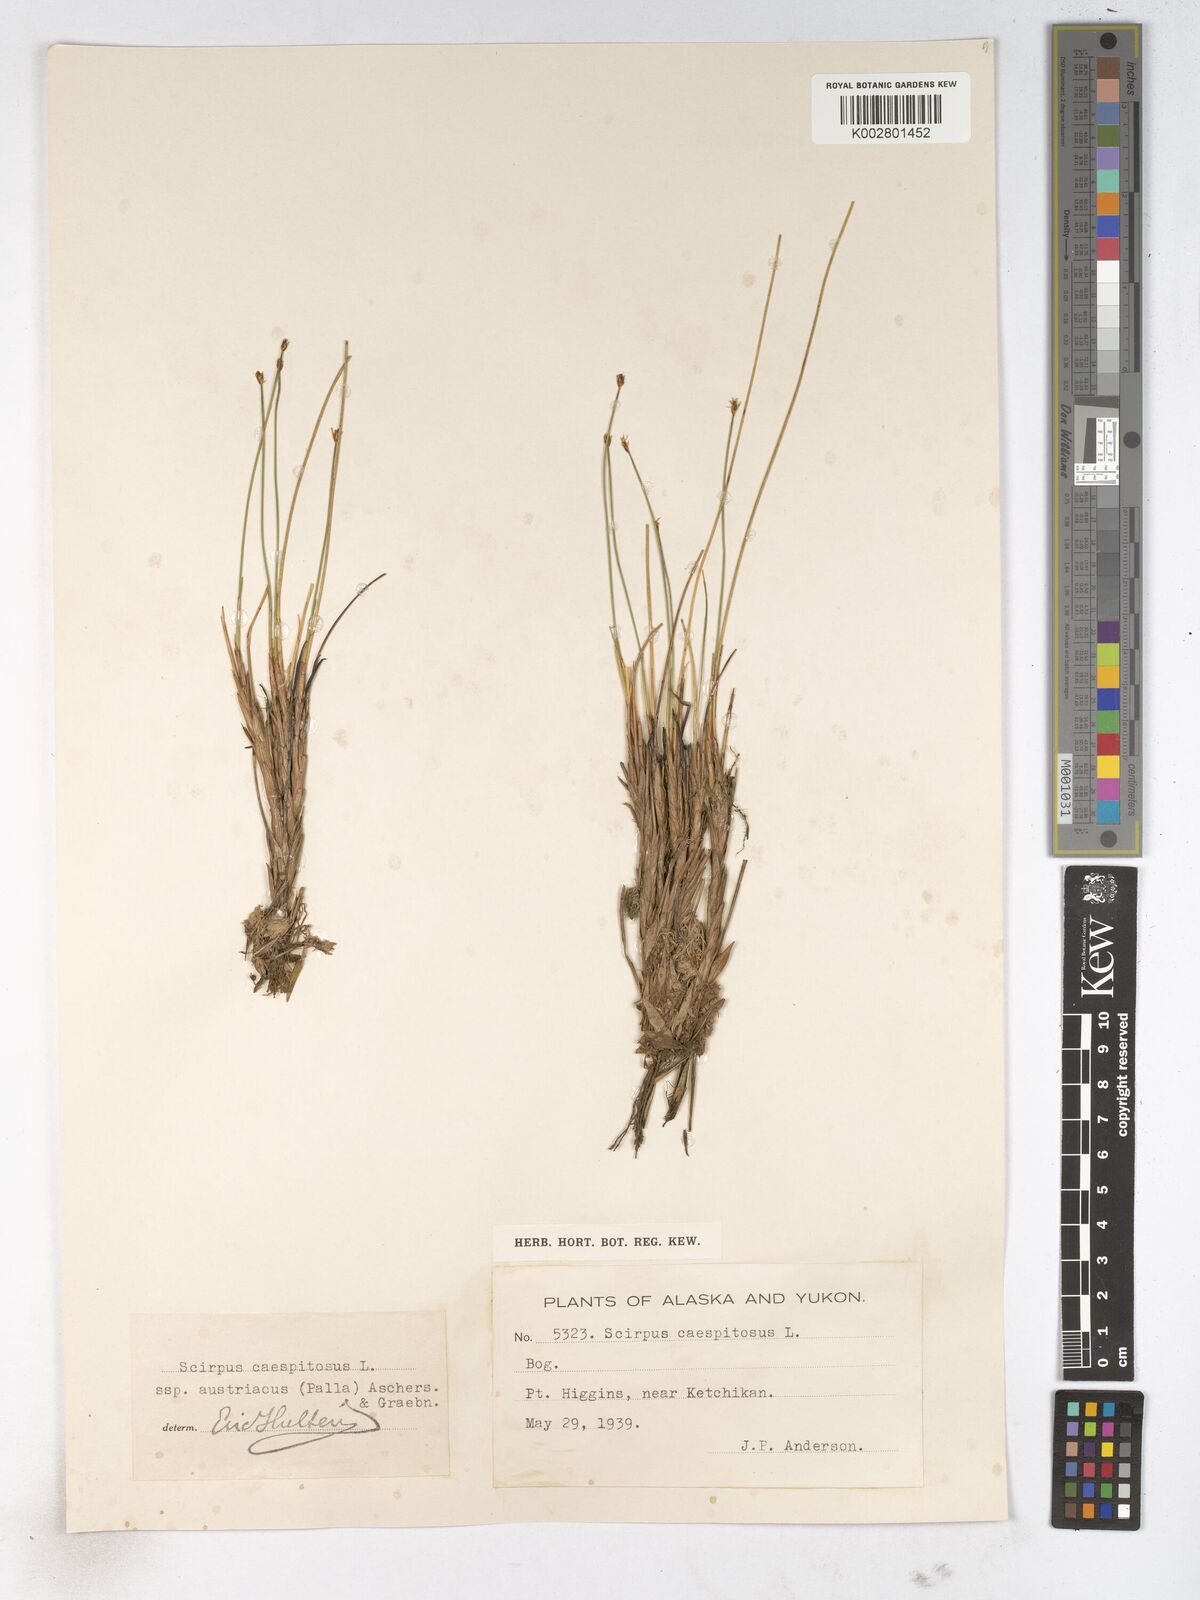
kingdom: Plantae
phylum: Tracheophyta
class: Liliopsida
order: Poales
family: Cyperaceae
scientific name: Cyperaceae
